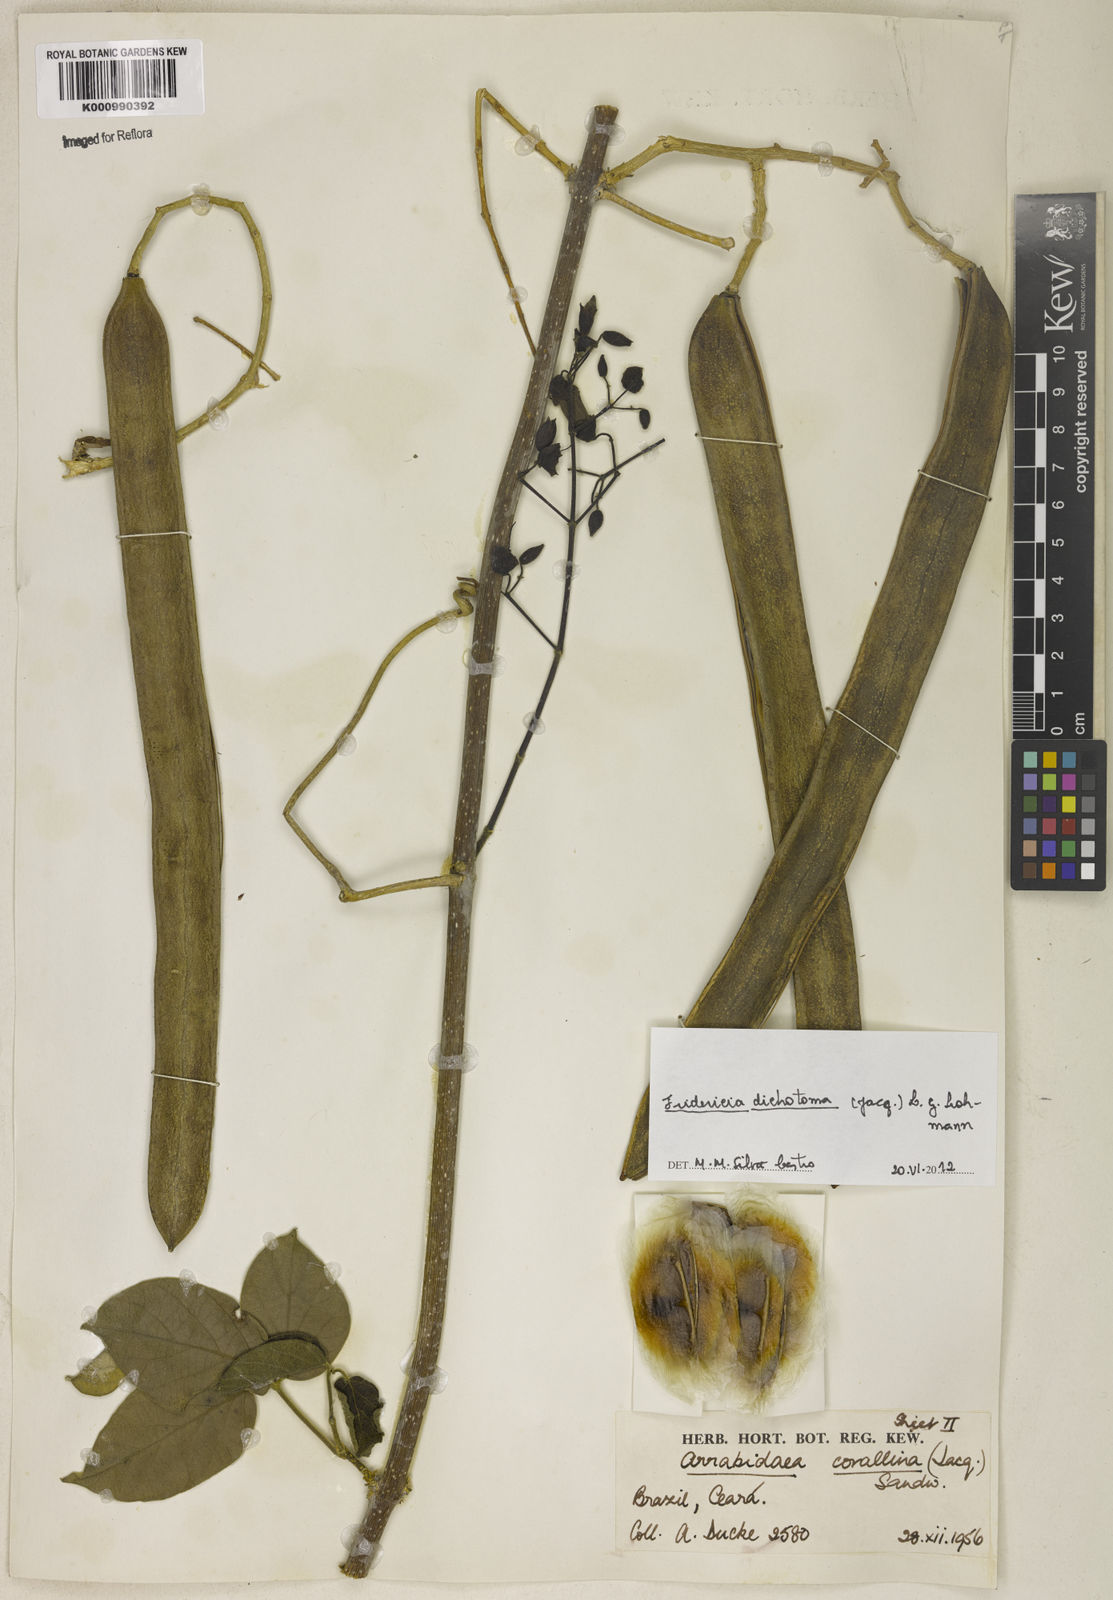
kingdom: Plantae
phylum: Tracheophyta
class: Magnoliopsida
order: Lamiales
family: Bignoniaceae
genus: Tanaecium
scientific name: Tanaecium dichotomum
